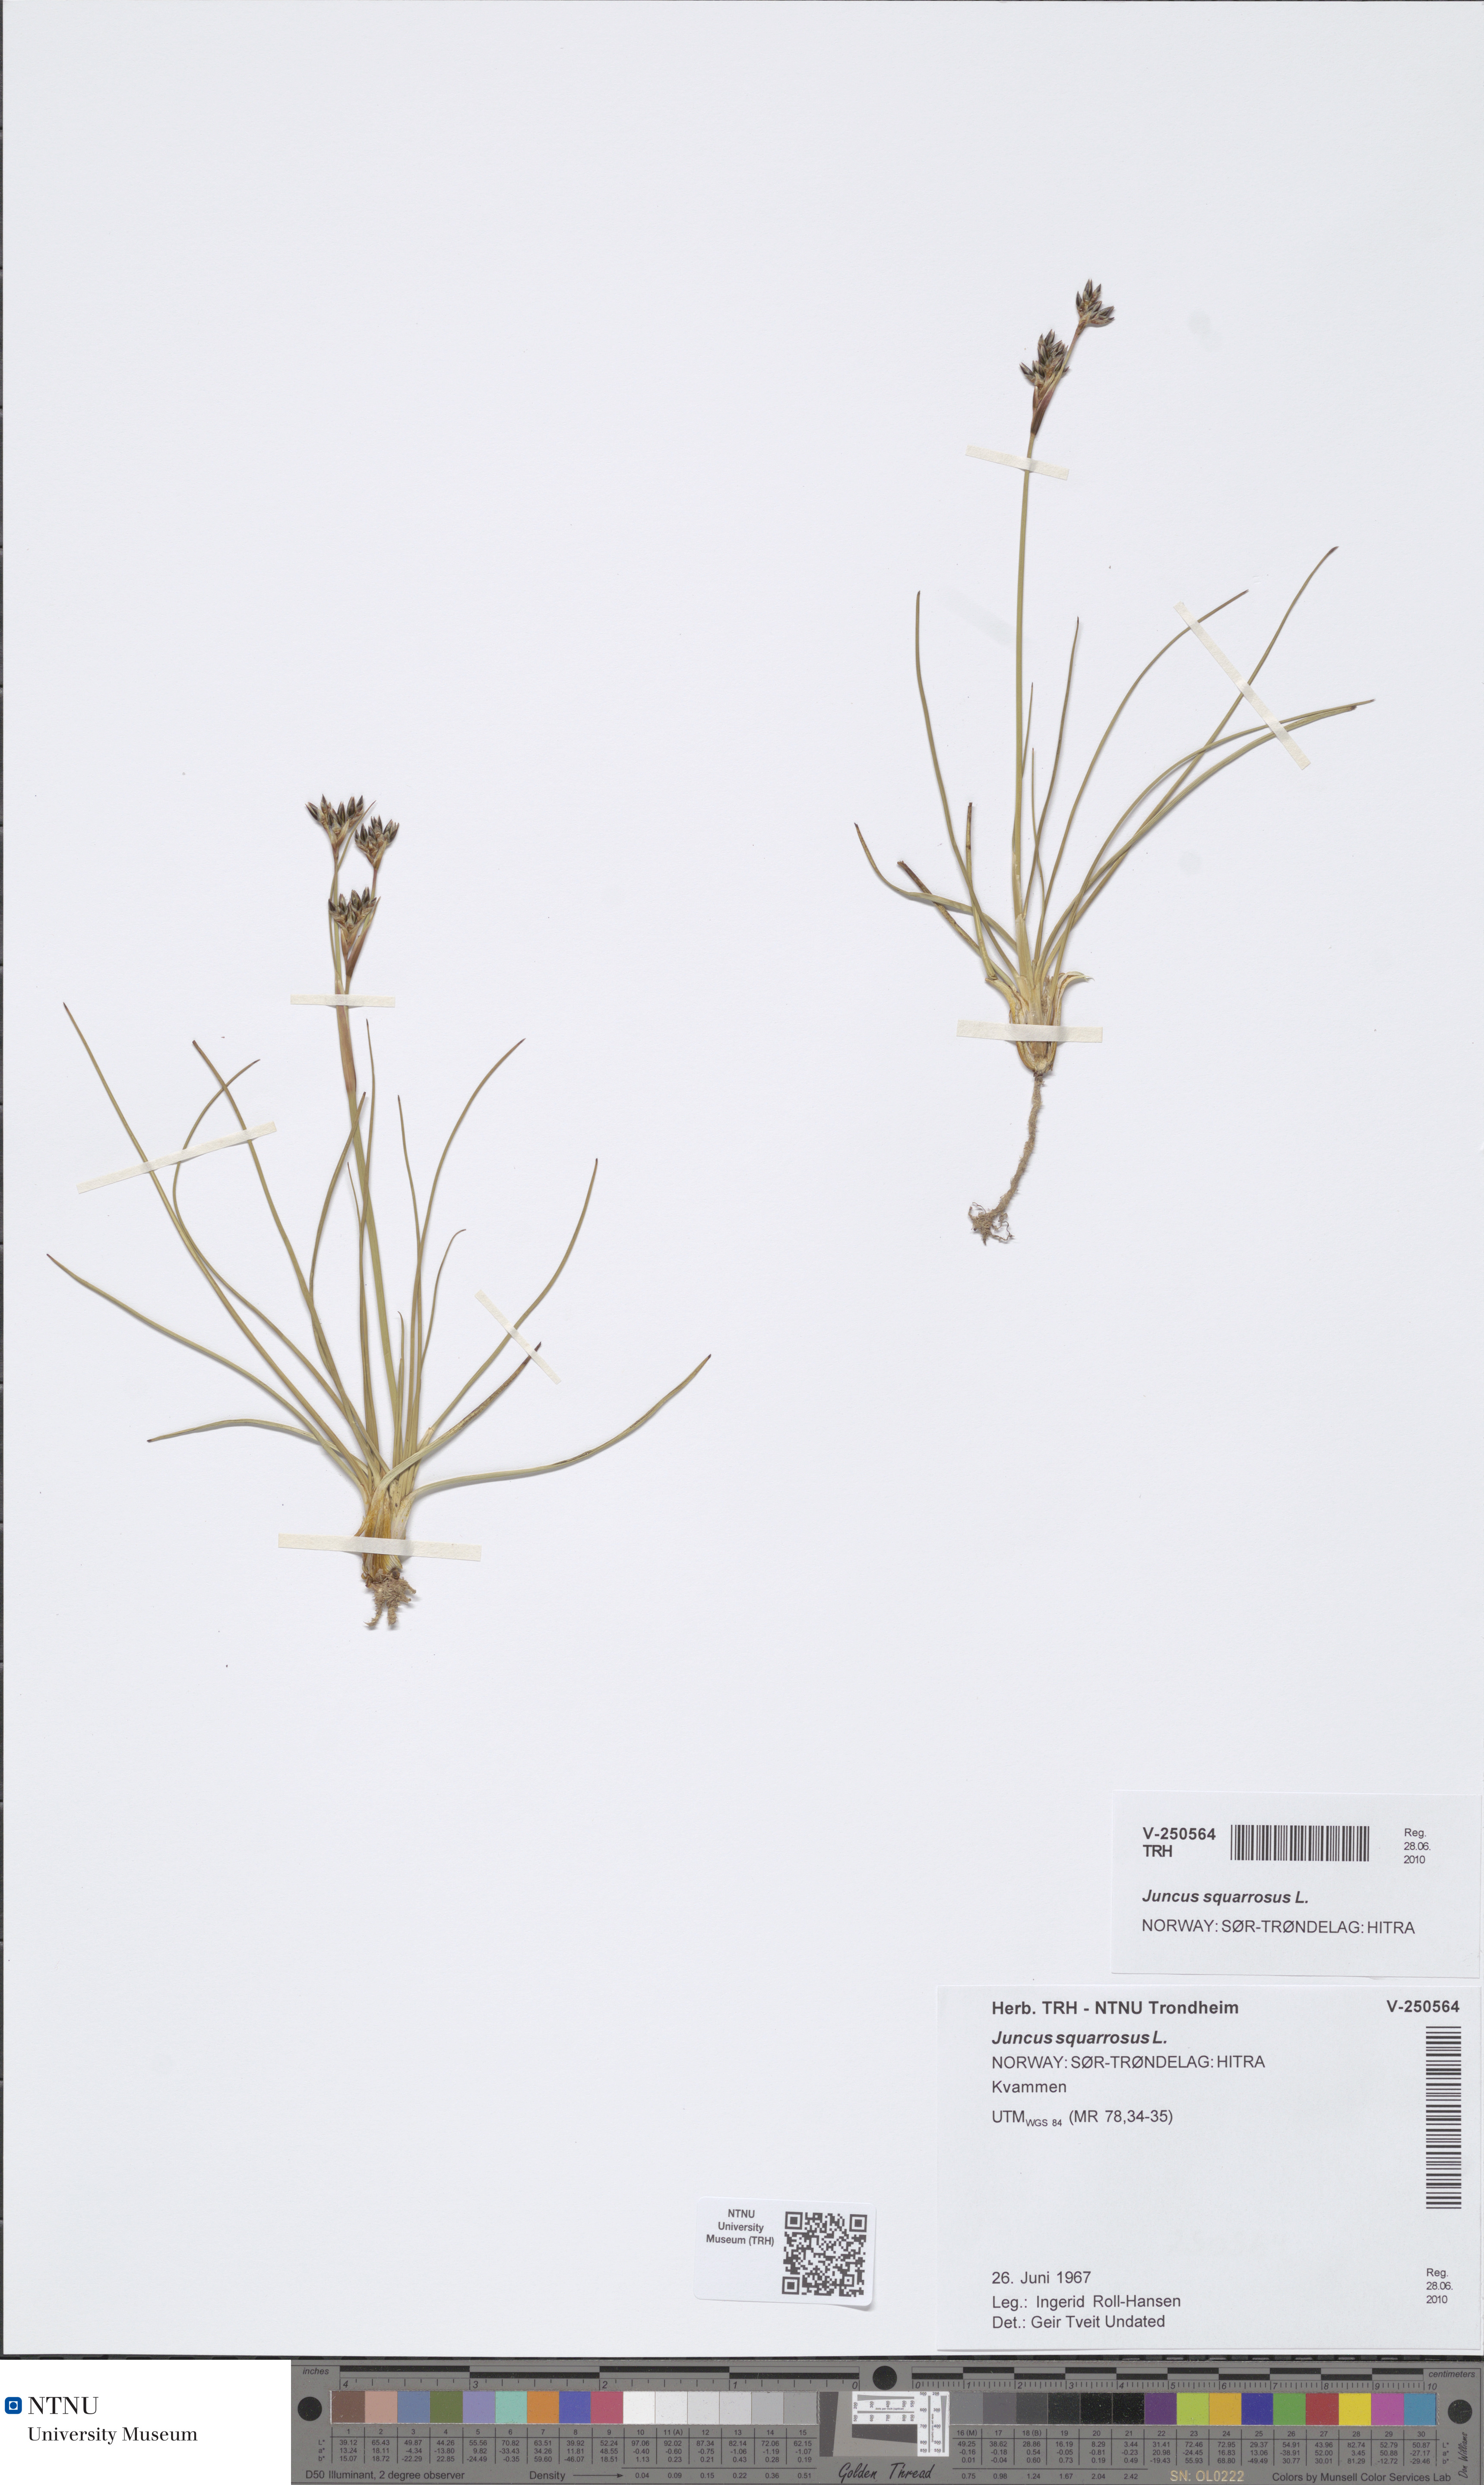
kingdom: Plantae
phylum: Tracheophyta
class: Liliopsida
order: Poales
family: Juncaceae
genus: Juncus
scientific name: Juncus squarrosus
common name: Heath rush
